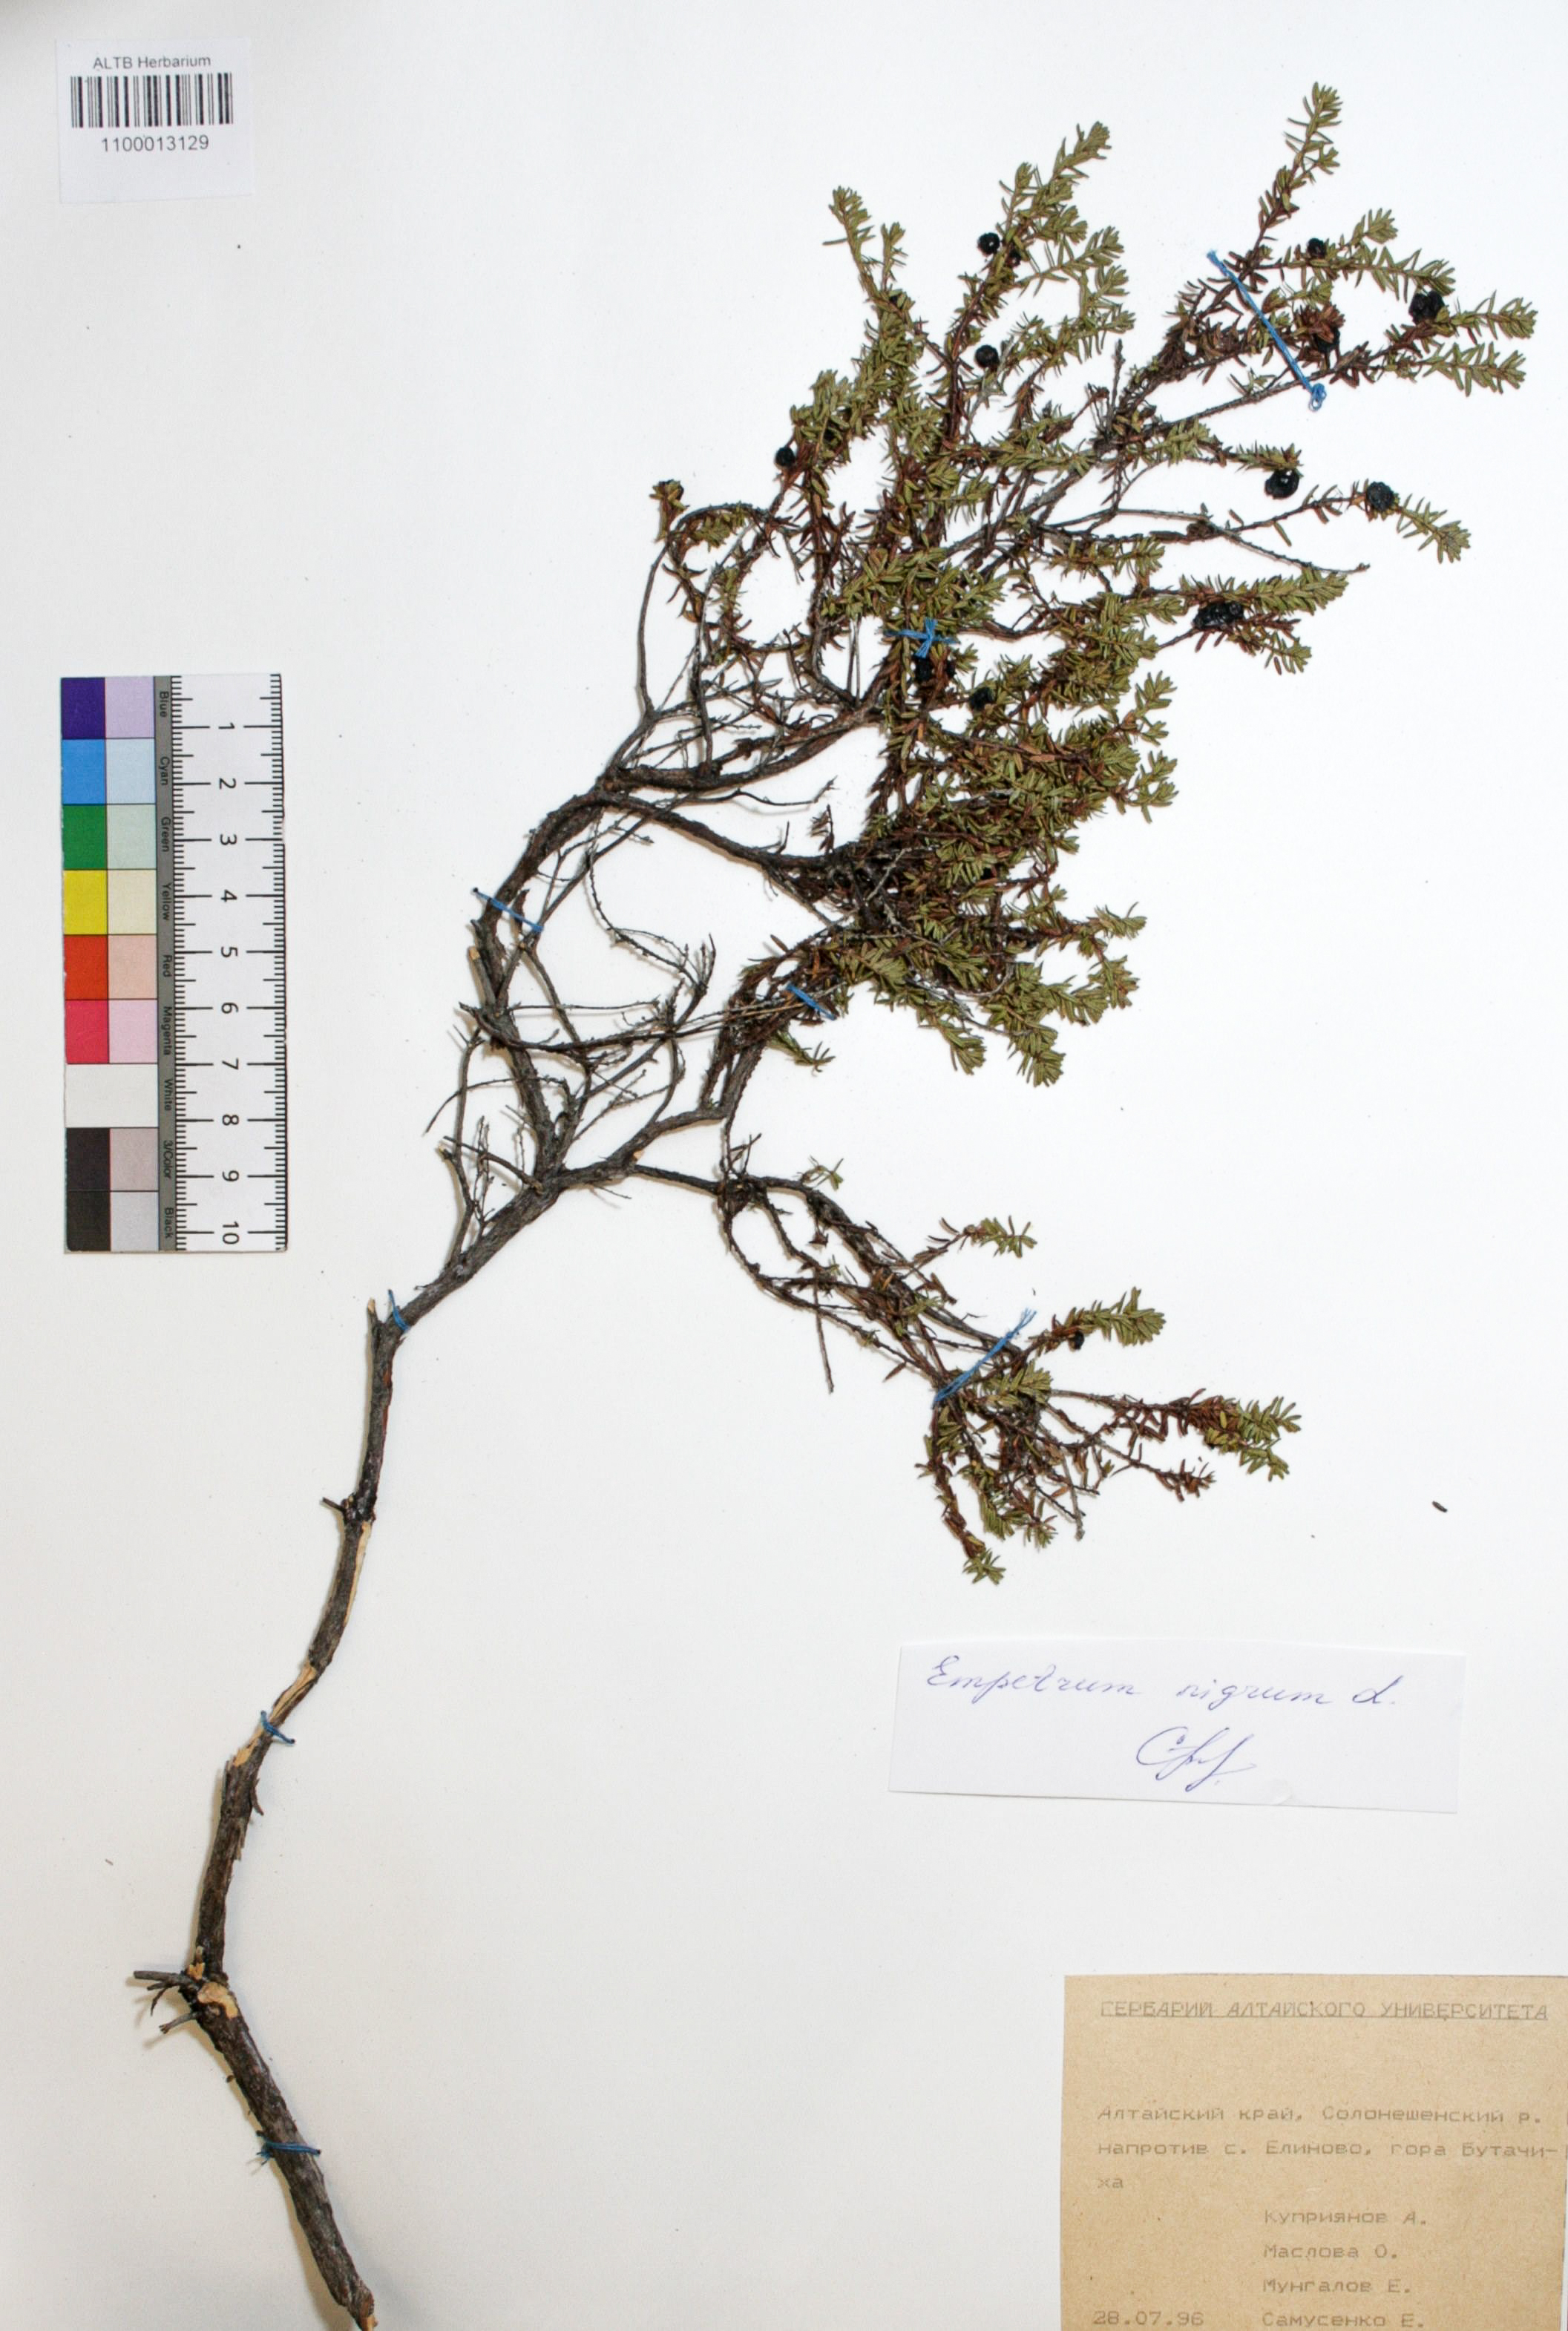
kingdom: Plantae
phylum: Tracheophyta
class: Magnoliopsida
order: Ericales
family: Ericaceae
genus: Empetrum
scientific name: Empetrum nigrum
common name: Black crowberry
